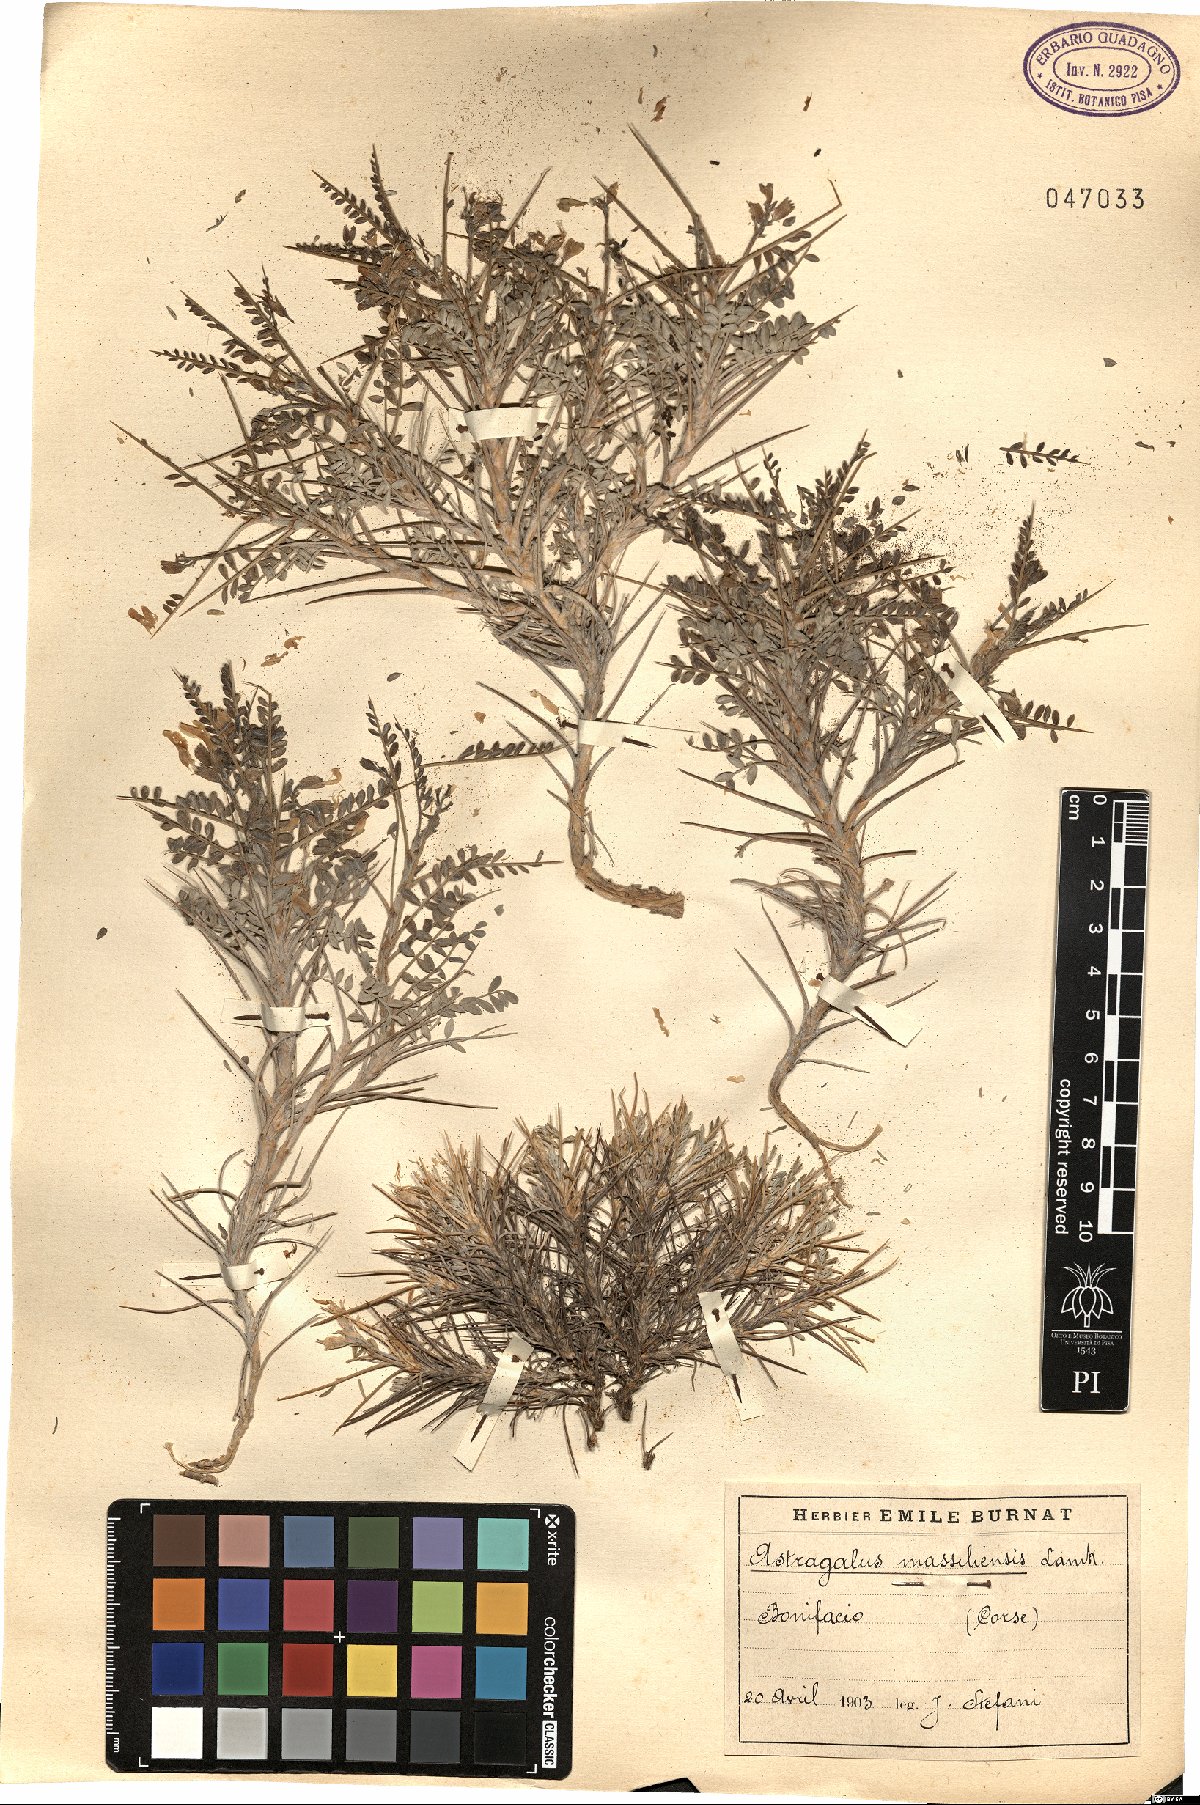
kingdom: Plantae
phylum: Tracheophyta
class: Magnoliopsida
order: Fabales
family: Fabaceae
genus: Astragalus
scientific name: Astragalus tragacantha
